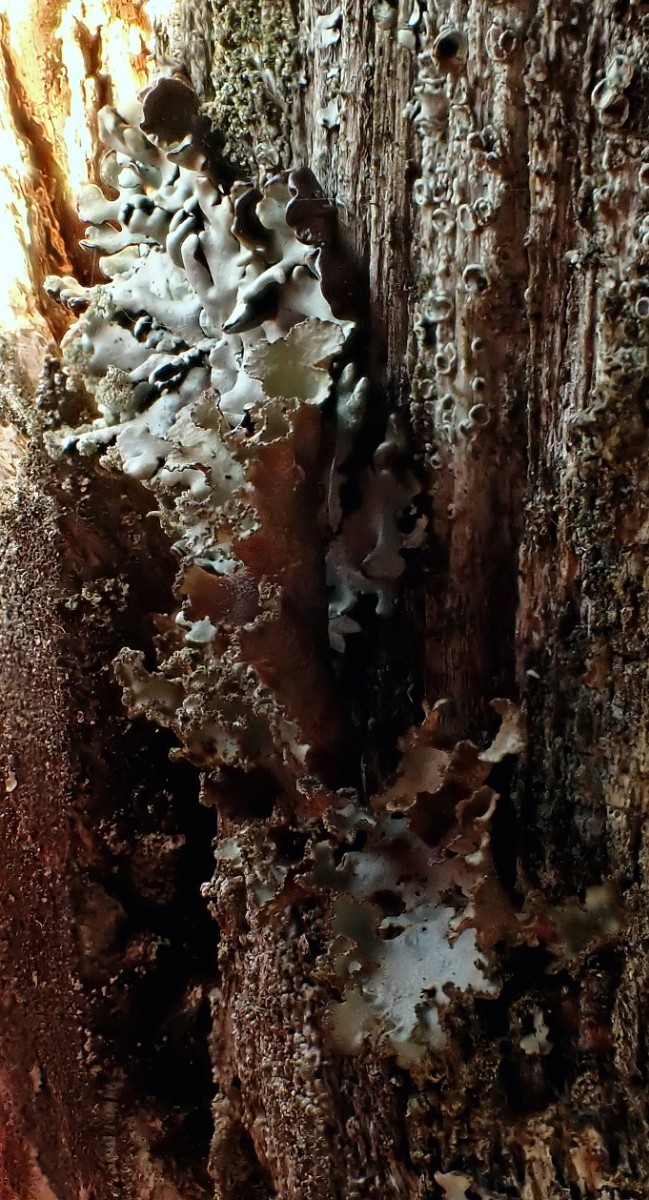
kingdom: Fungi
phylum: Ascomycota
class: Lecanoromycetes
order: Lecanorales
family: Parmeliaceae
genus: Platismatia
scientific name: Platismatia glauca
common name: blågrå papirlav
